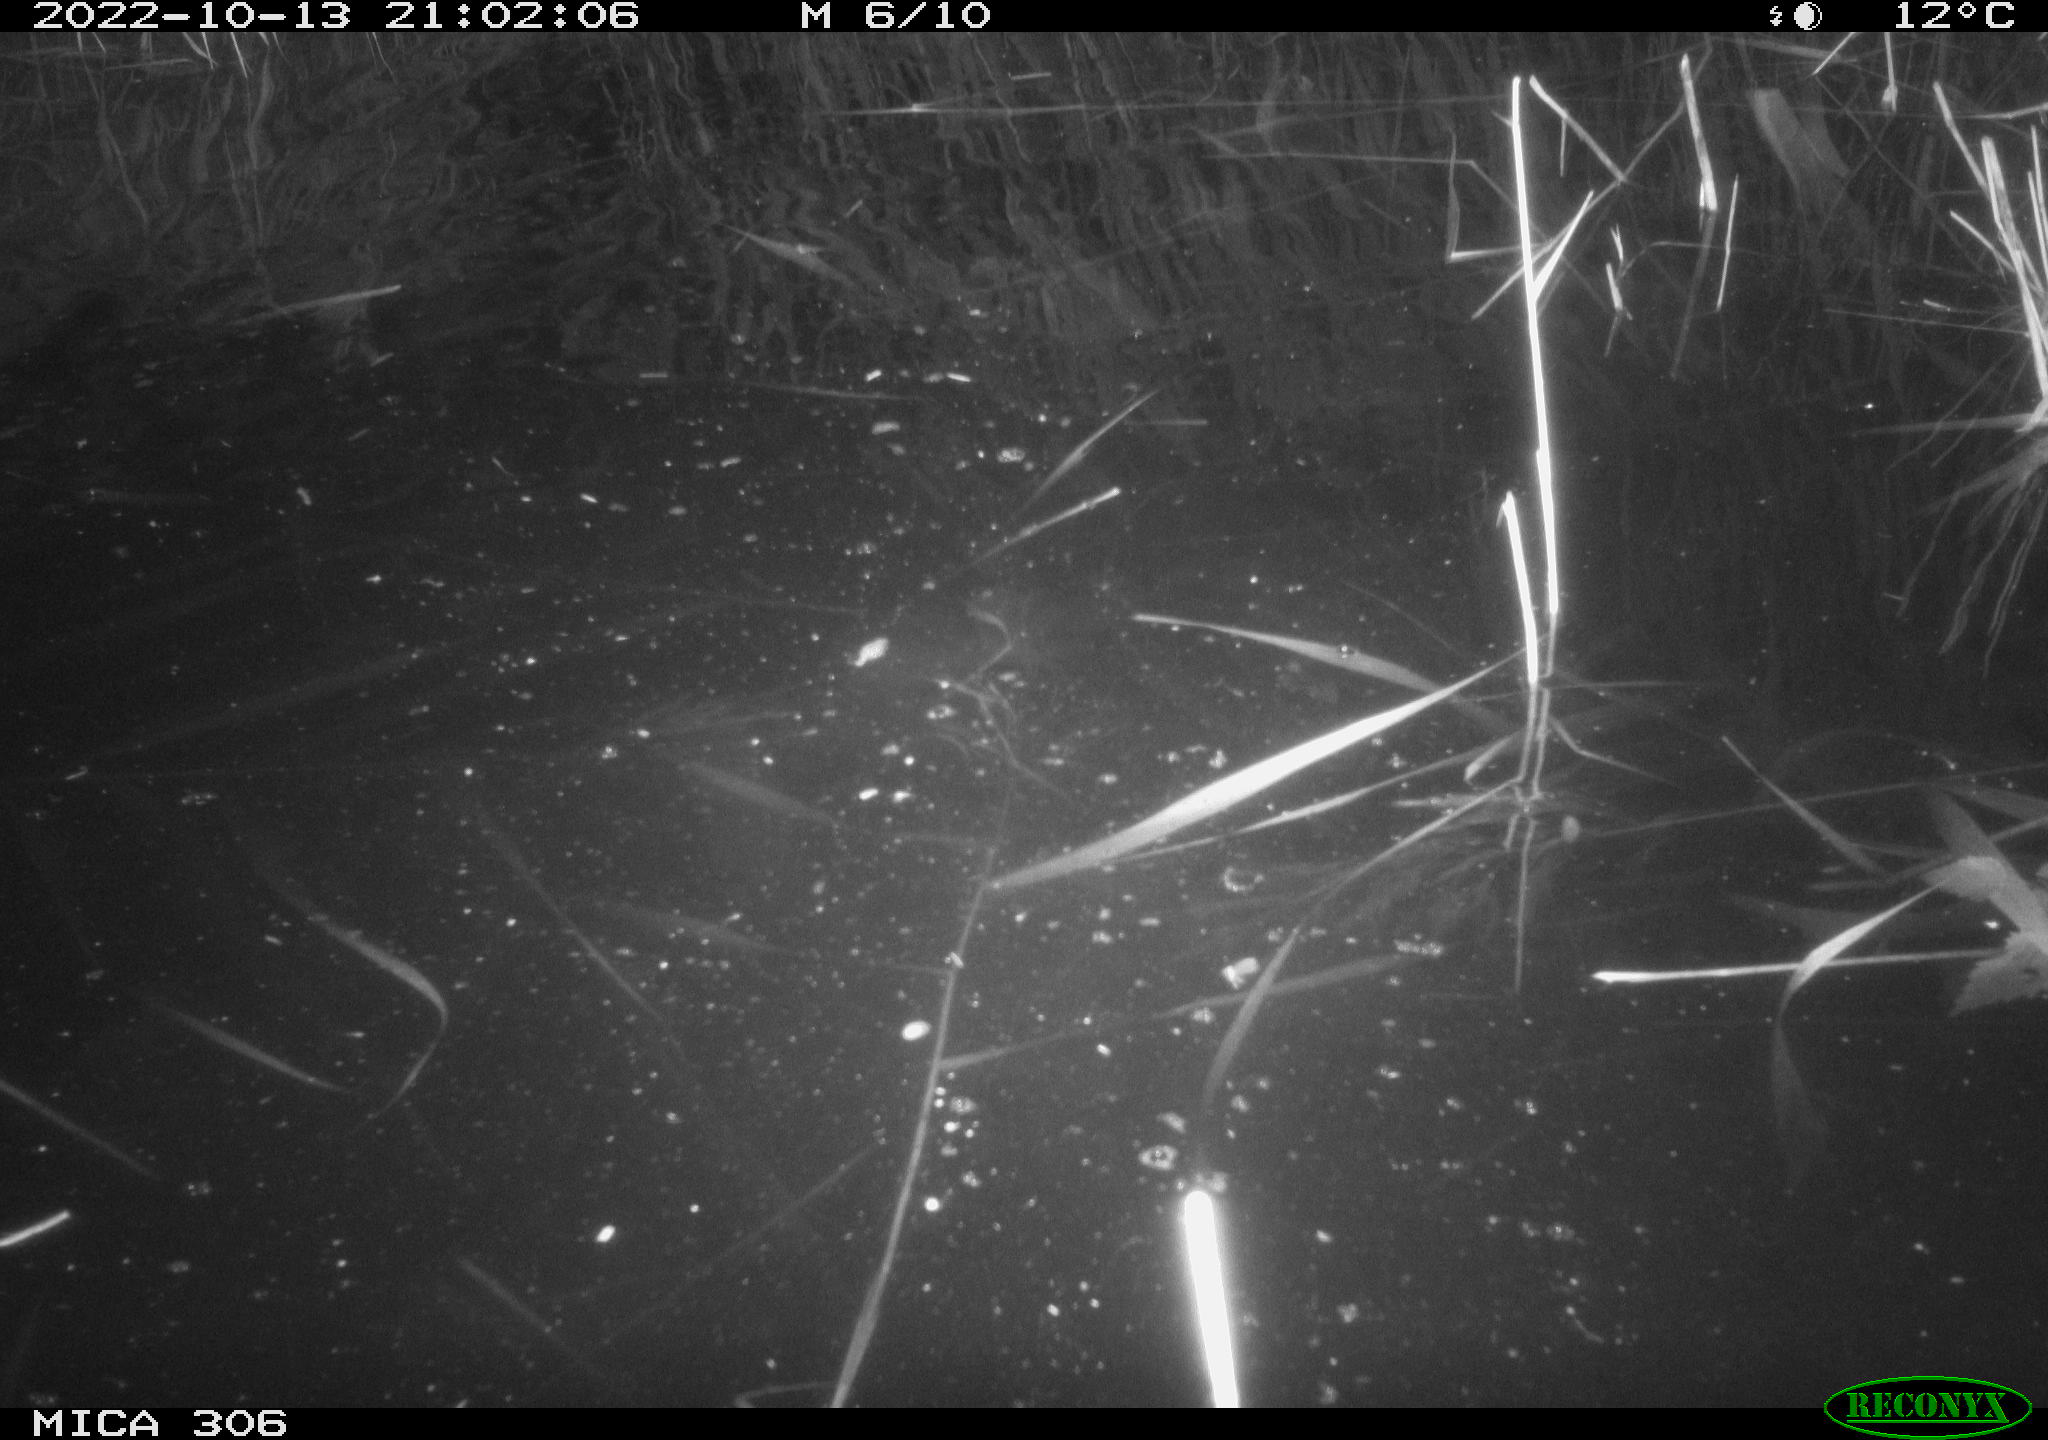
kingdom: Animalia
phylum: Chordata
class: Mammalia
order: Rodentia
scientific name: Rodentia
